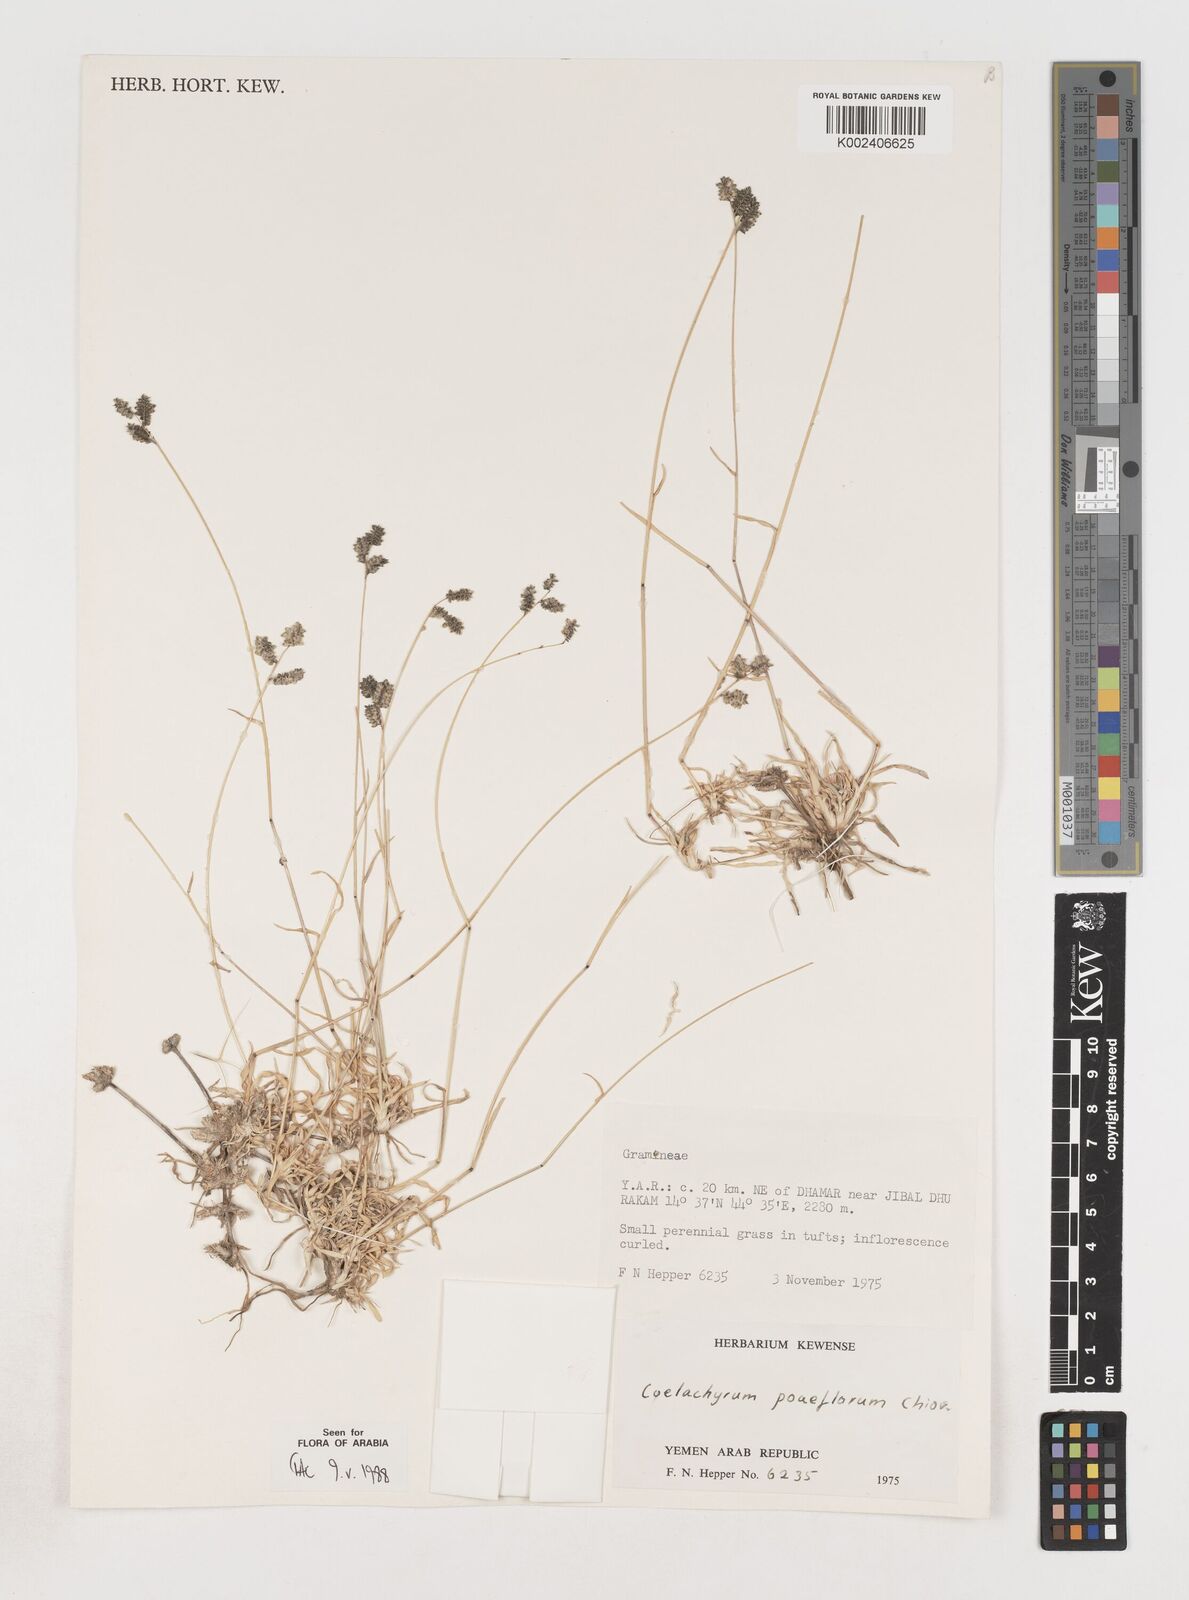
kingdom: Plantae
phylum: Tracheophyta
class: Liliopsida
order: Poales
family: Poaceae
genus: Coelachyrum
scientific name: Coelachyrum poiflorum
